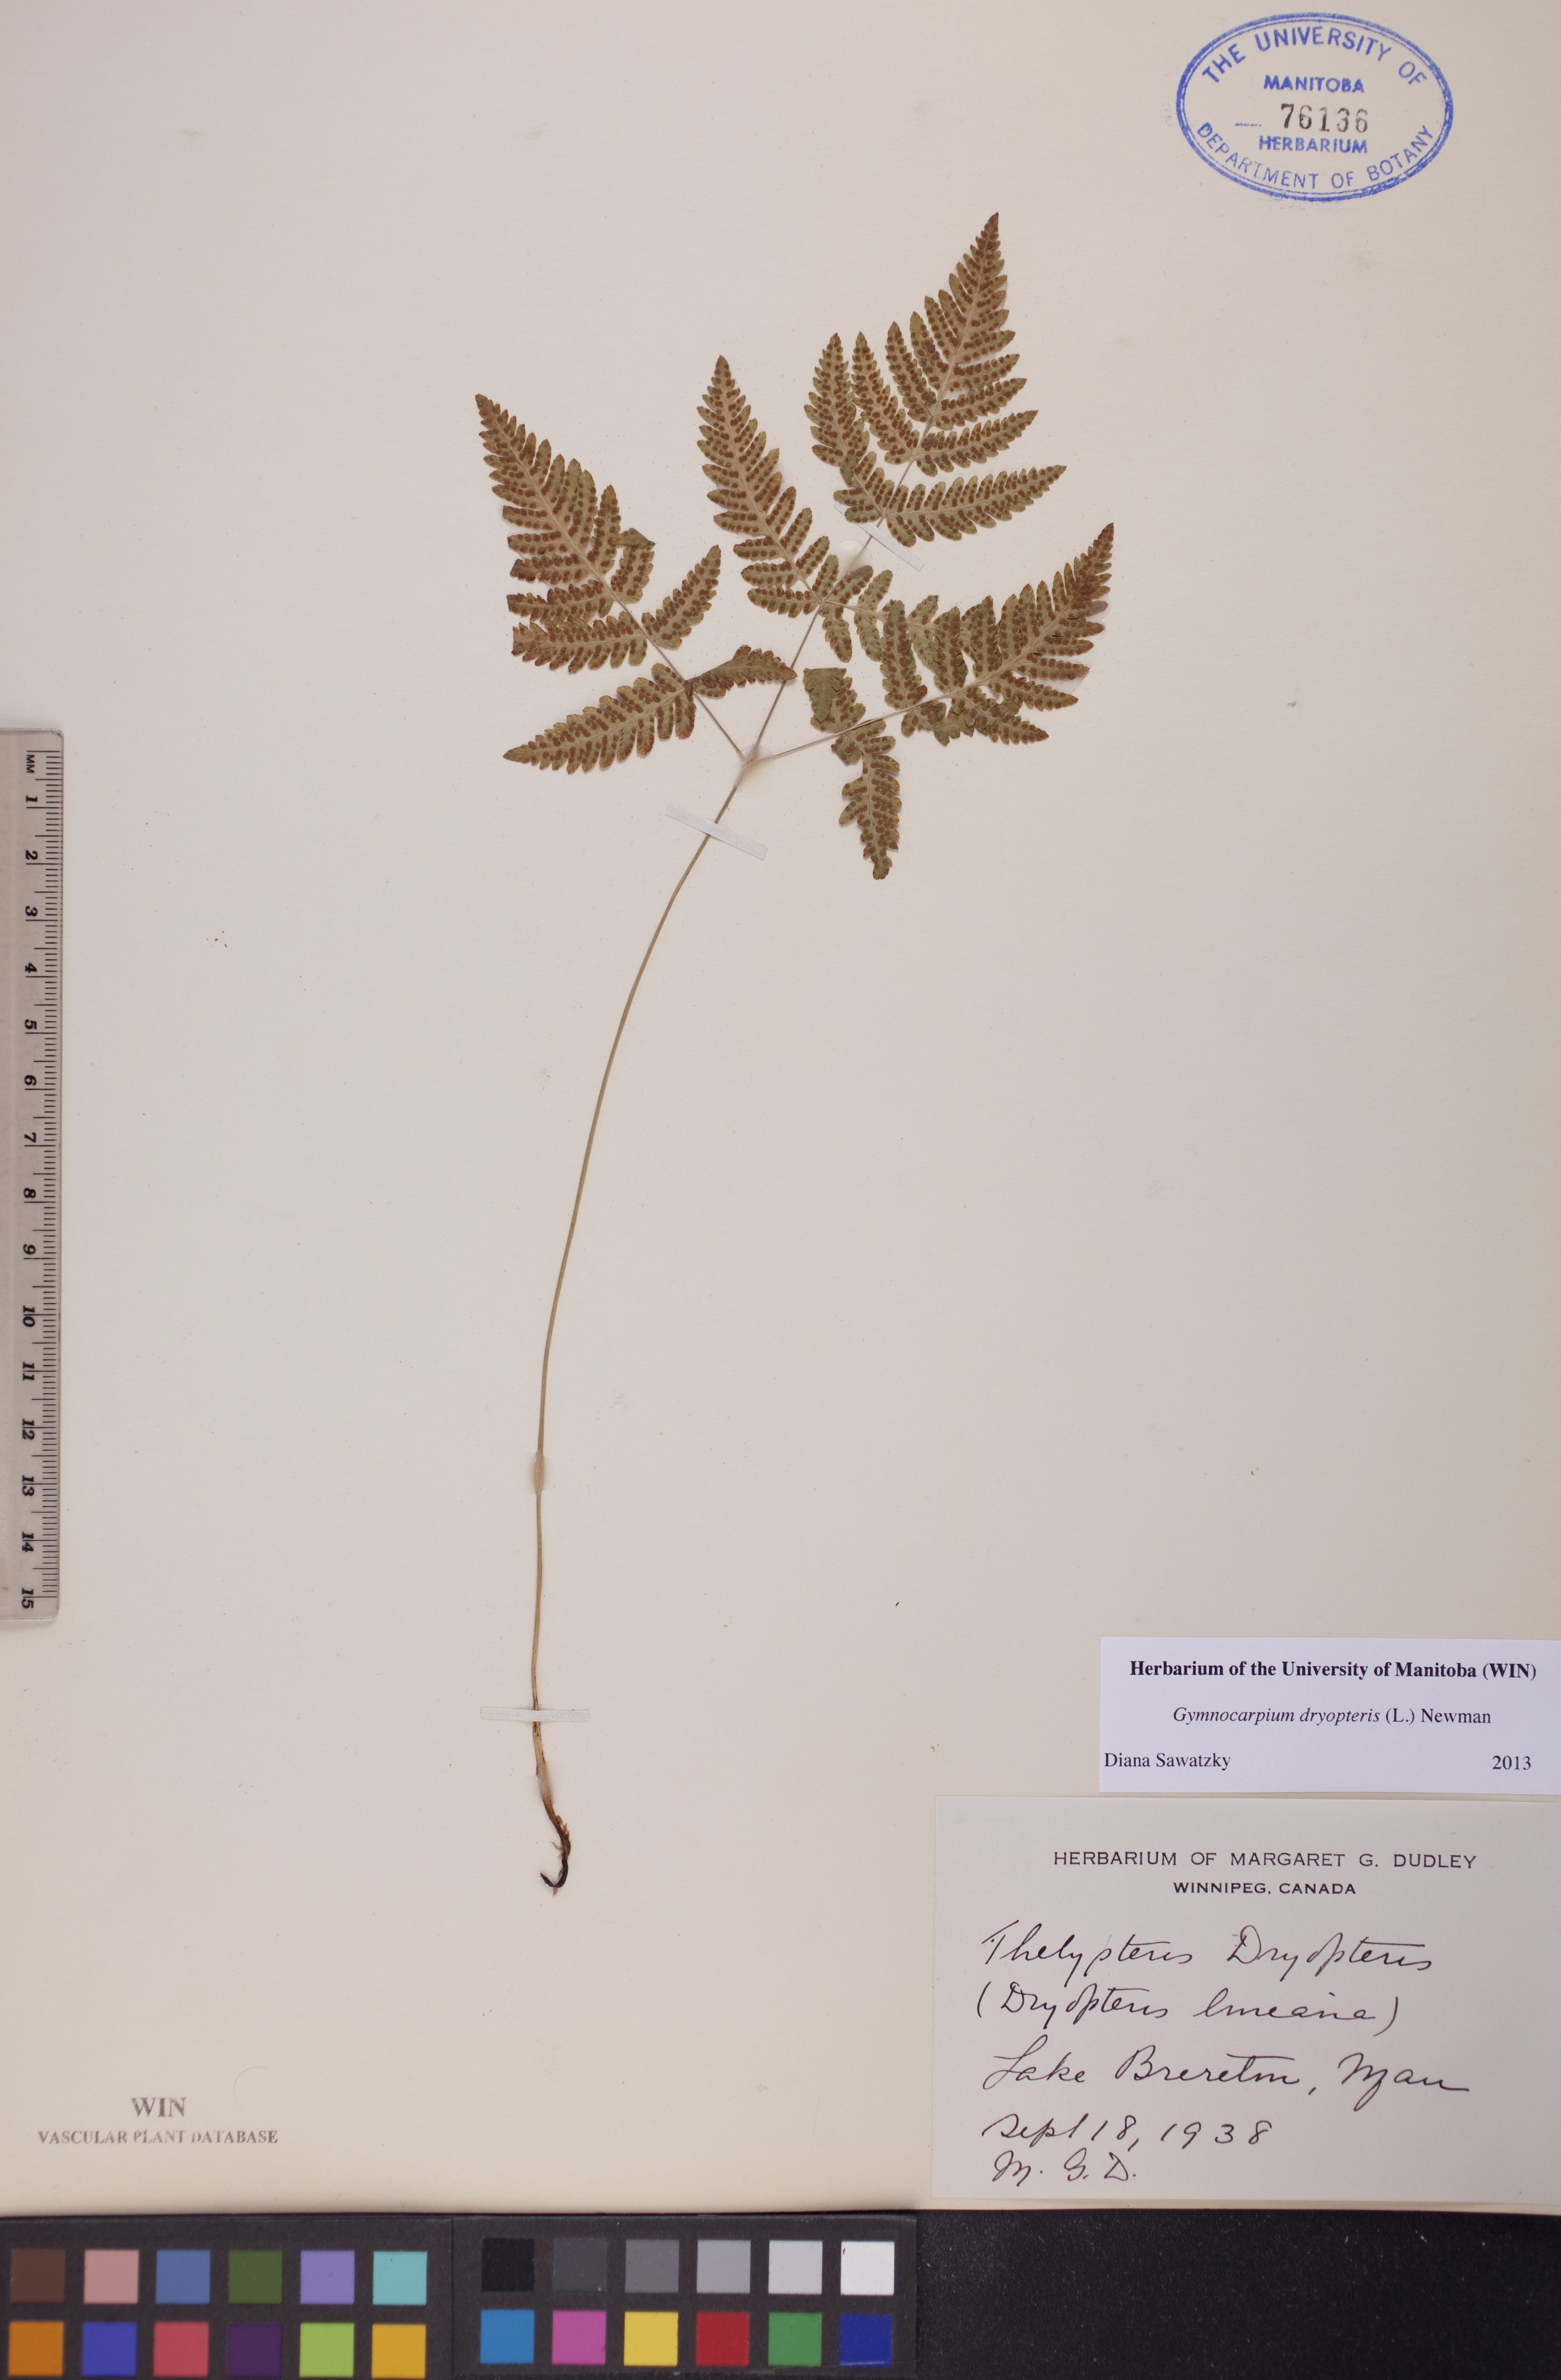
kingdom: Plantae
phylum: Tracheophyta
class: Polypodiopsida
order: Polypodiales
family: Cystopteridaceae
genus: Gymnocarpium
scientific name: Gymnocarpium dryopteris
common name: Oak fern
